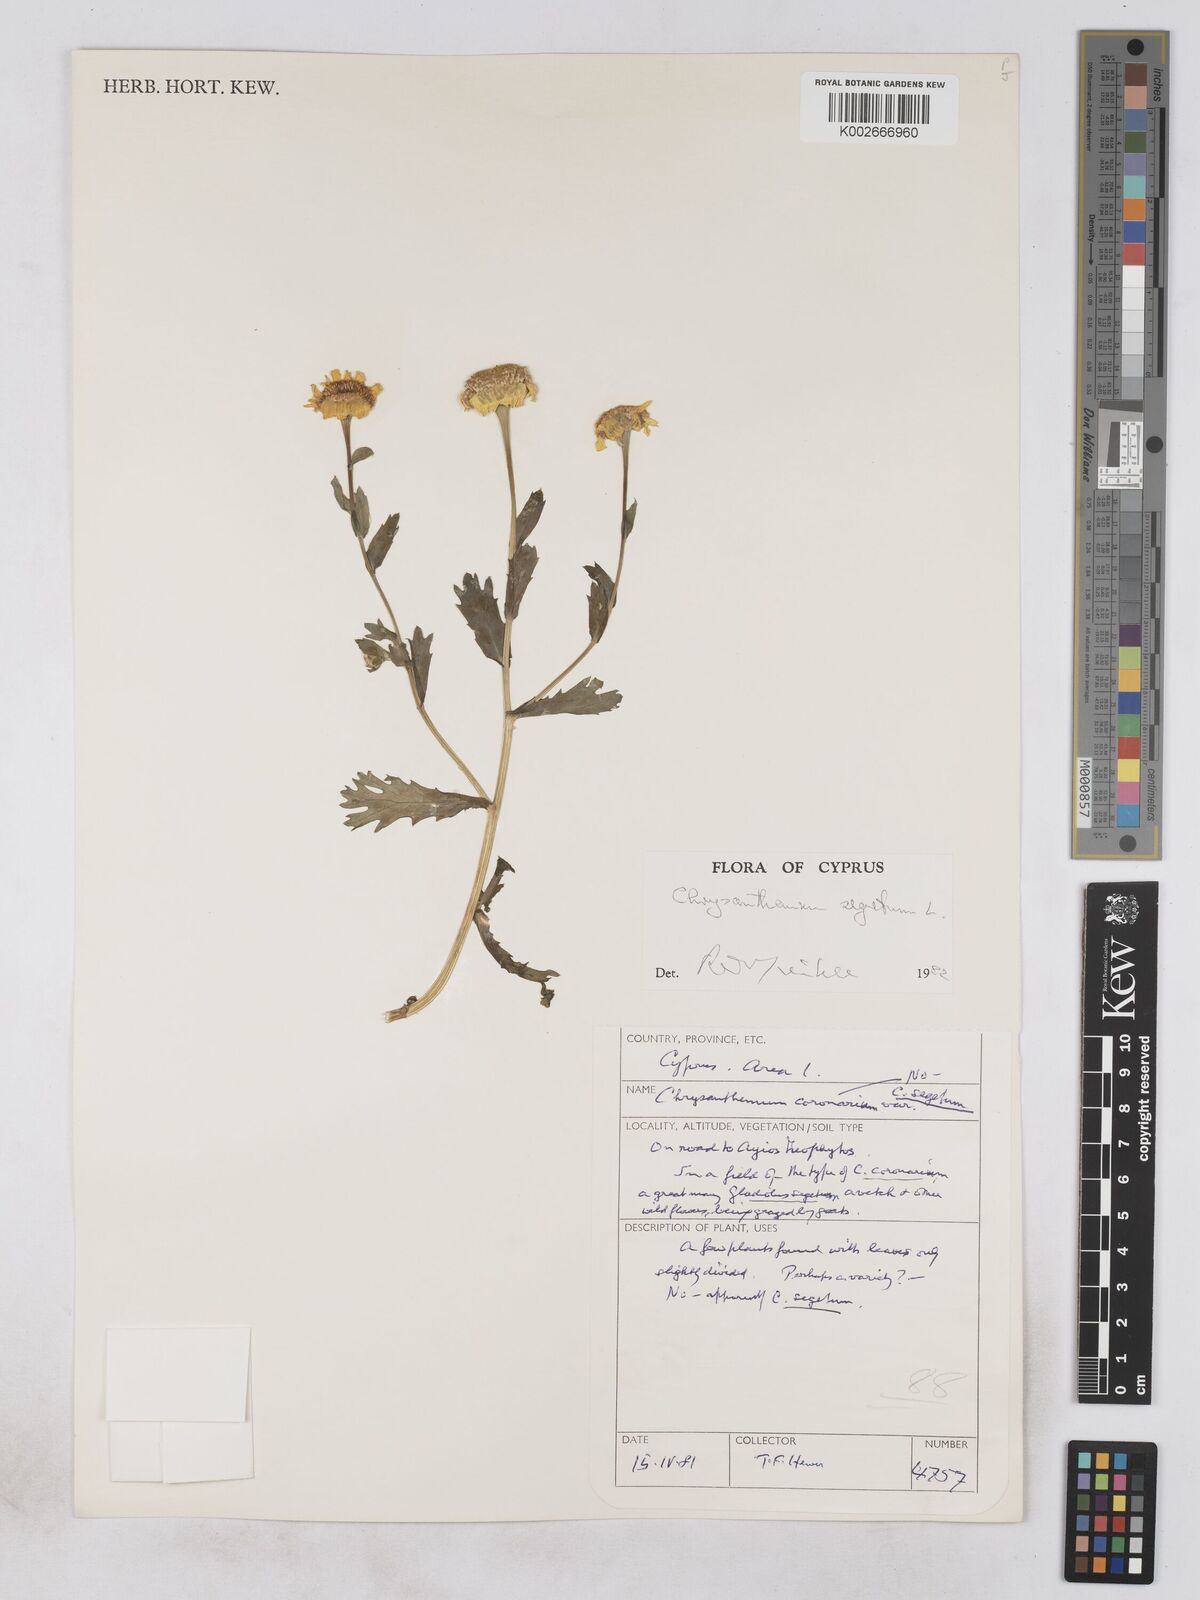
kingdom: Plantae
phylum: Tracheophyta
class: Magnoliopsida
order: Asterales
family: Asteraceae
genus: Glebionis
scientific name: Glebionis segetum
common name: Corndaisy
